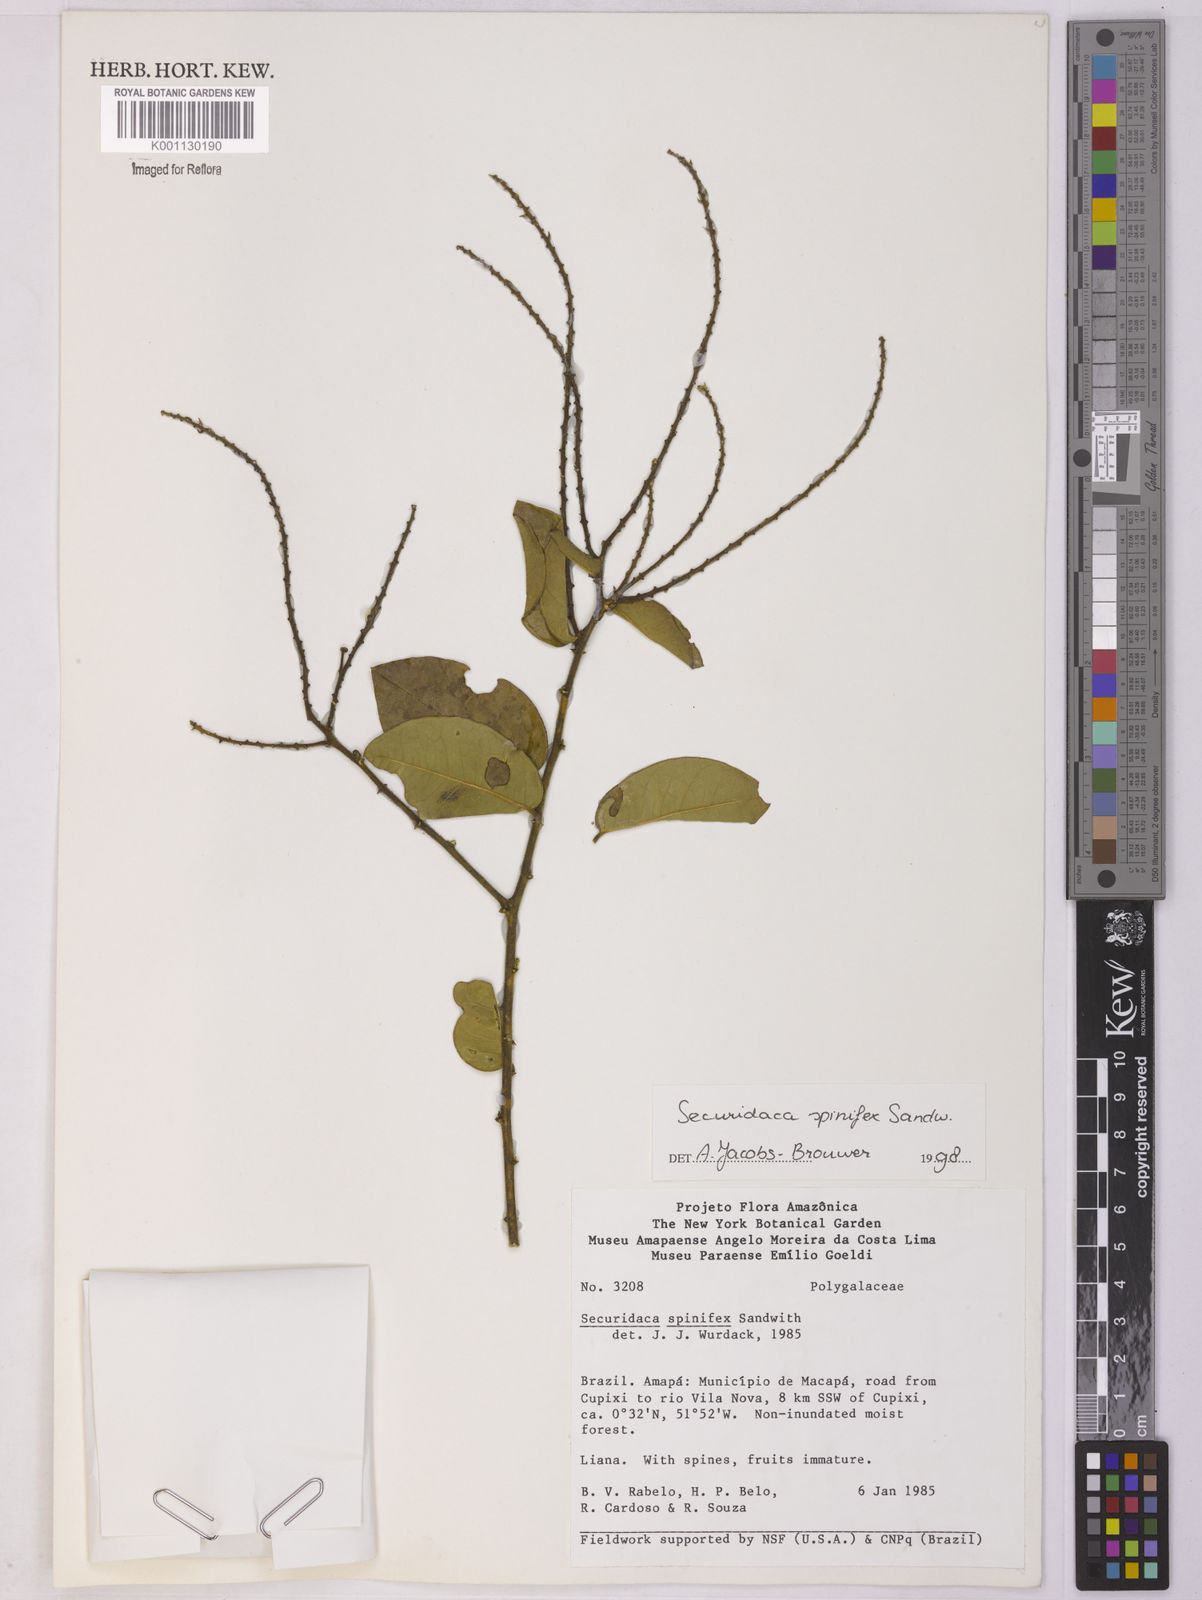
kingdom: Plantae
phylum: Tracheophyta
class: Magnoliopsida
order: Fabales
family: Polygalaceae
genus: Securidaca
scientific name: Securidaca spinifex
